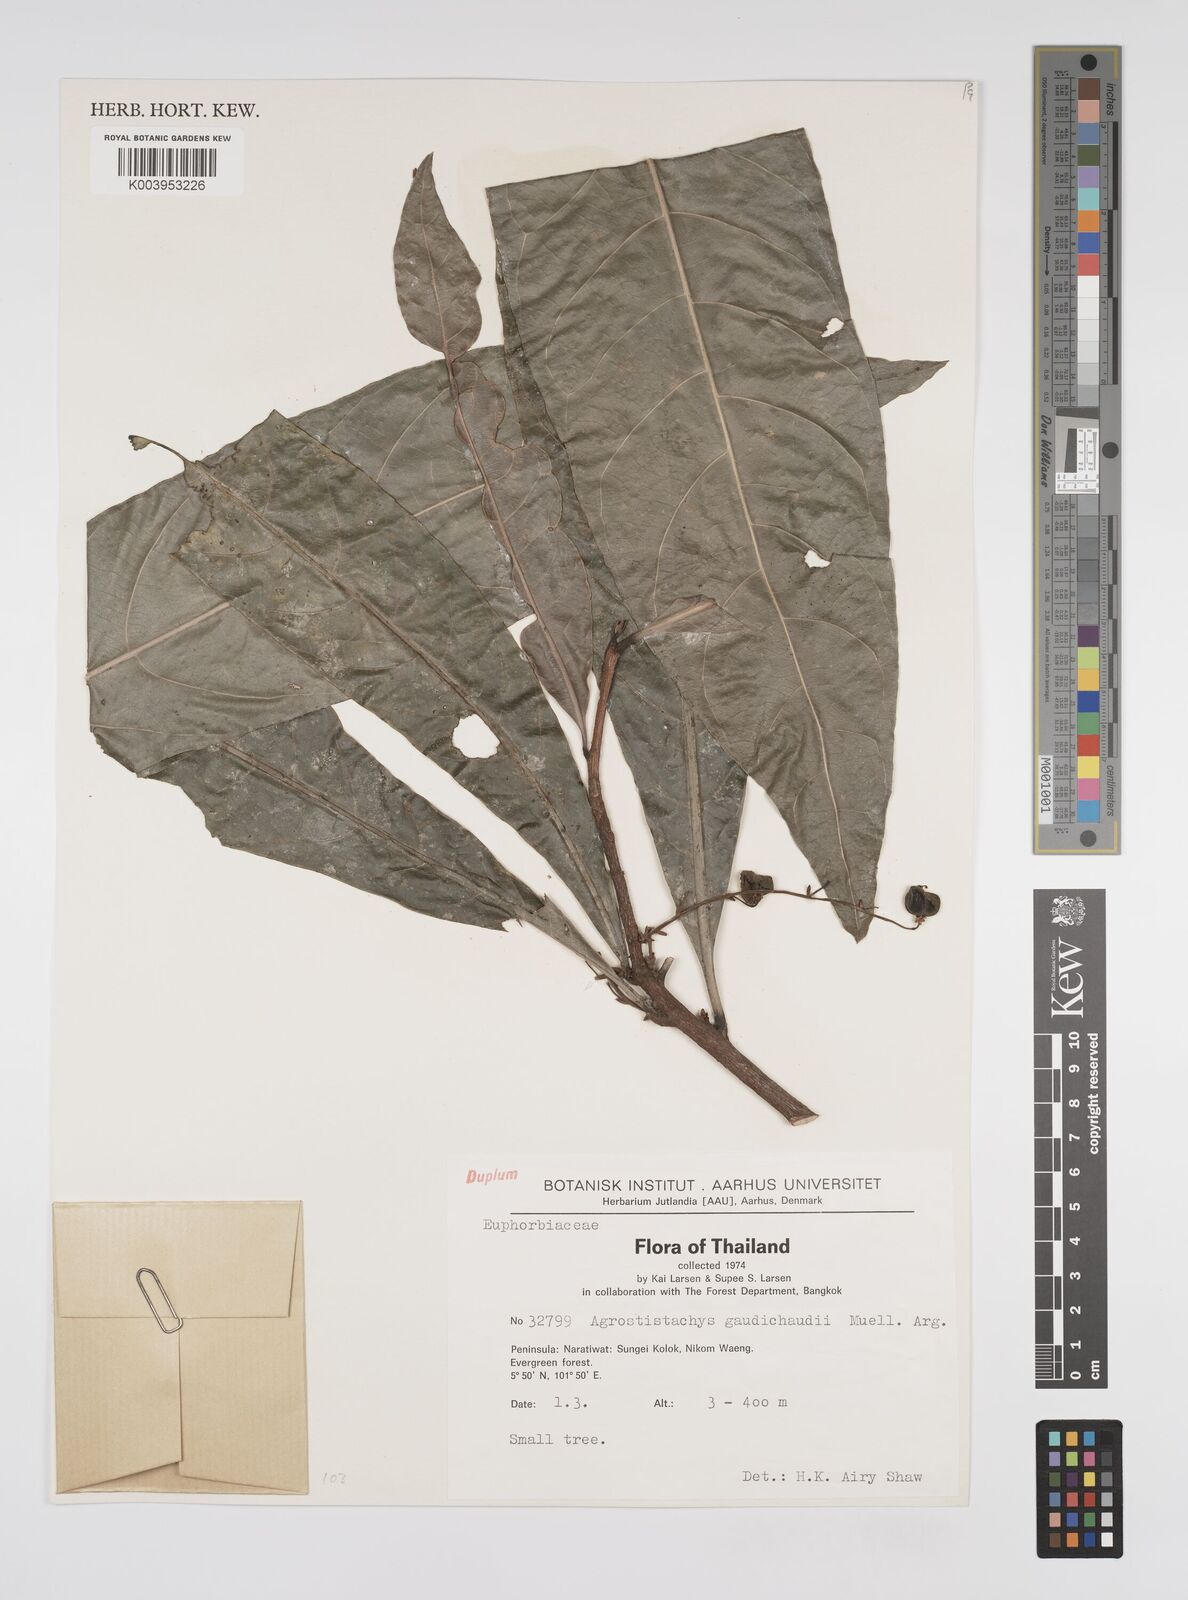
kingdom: Plantae
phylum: Tracheophyta
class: Magnoliopsida
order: Malpighiales
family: Euphorbiaceae
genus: Agrostistachys
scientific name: Agrostistachys gaudichaudii
